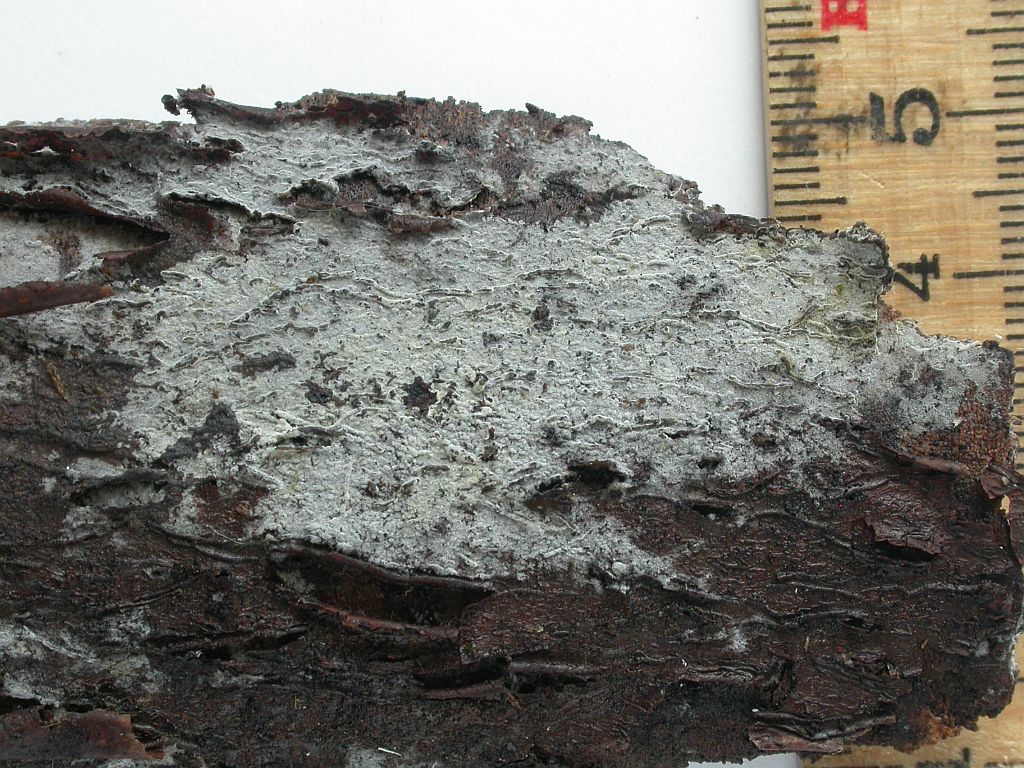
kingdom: Fungi
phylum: Basidiomycota
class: Agaricomycetes
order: Corticiales
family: Corticiaceae
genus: Lyomyces
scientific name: Lyomyces sambuci
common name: almindelig hyldehinde
